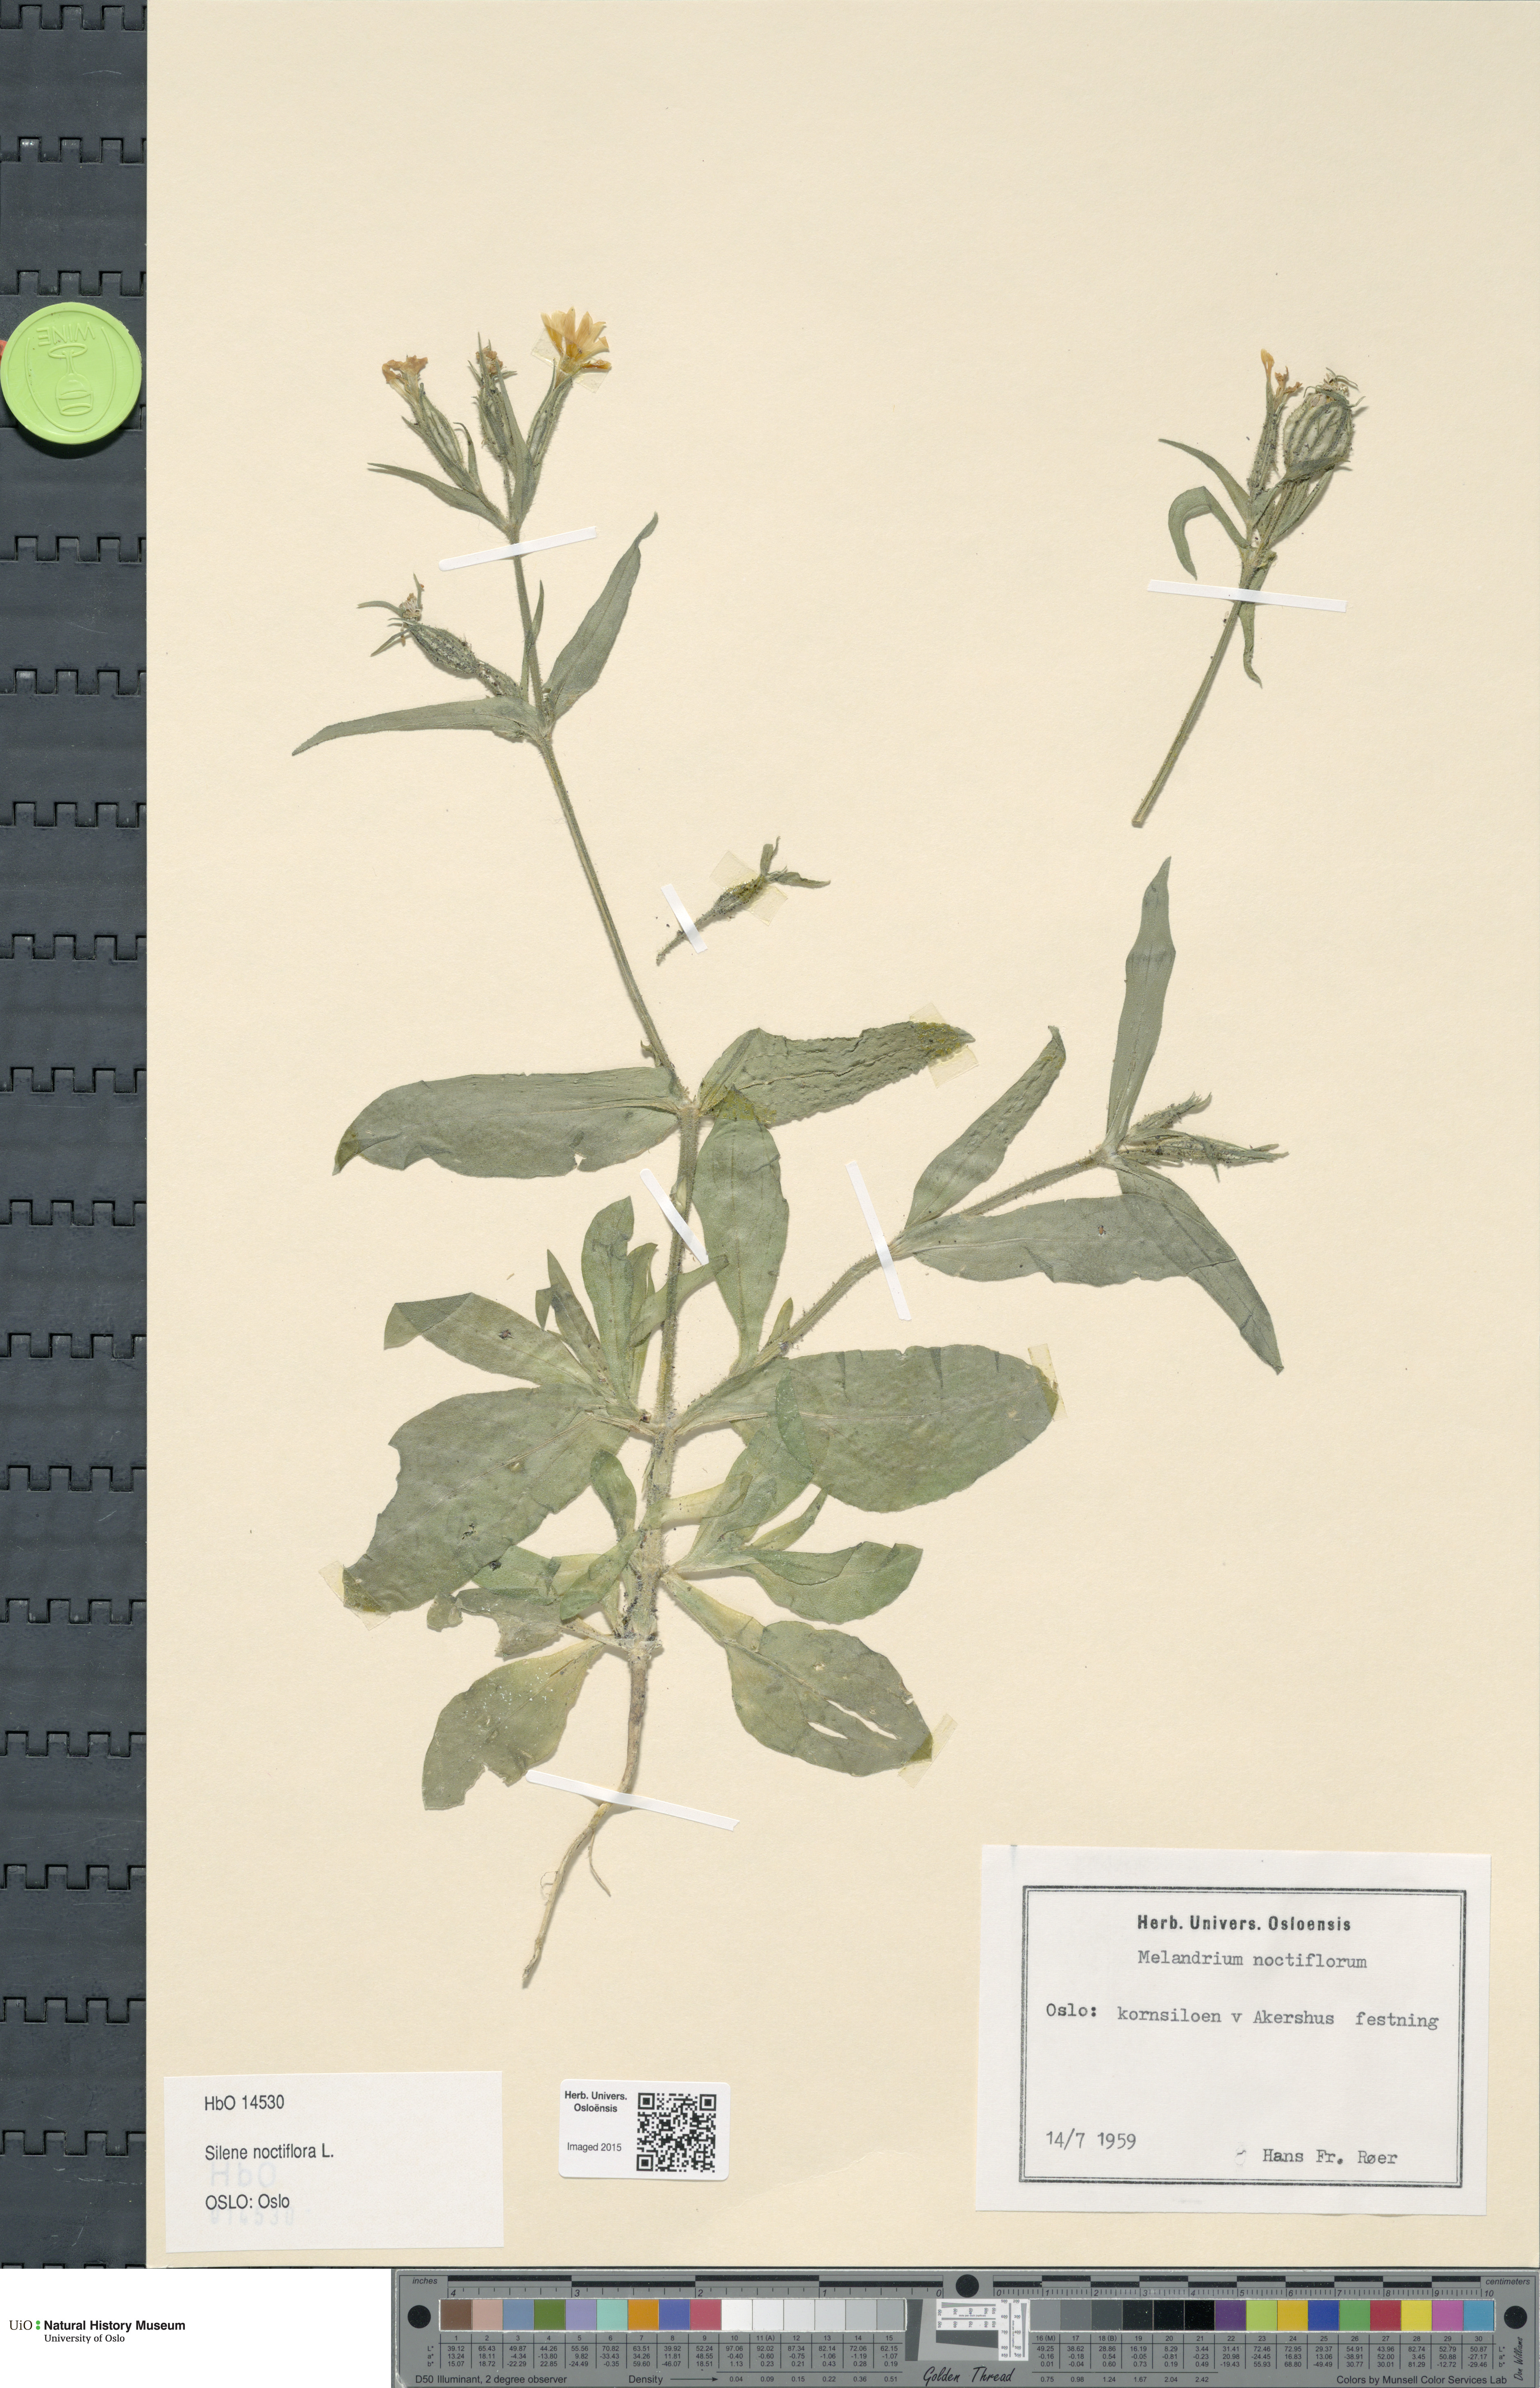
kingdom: Plantae
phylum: Tracheophyta
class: Magnoliopsida
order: Caryophyllales
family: Caryophyllaceae
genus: Silene
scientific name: Silene noctiflora
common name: Night-flowering catchfly
